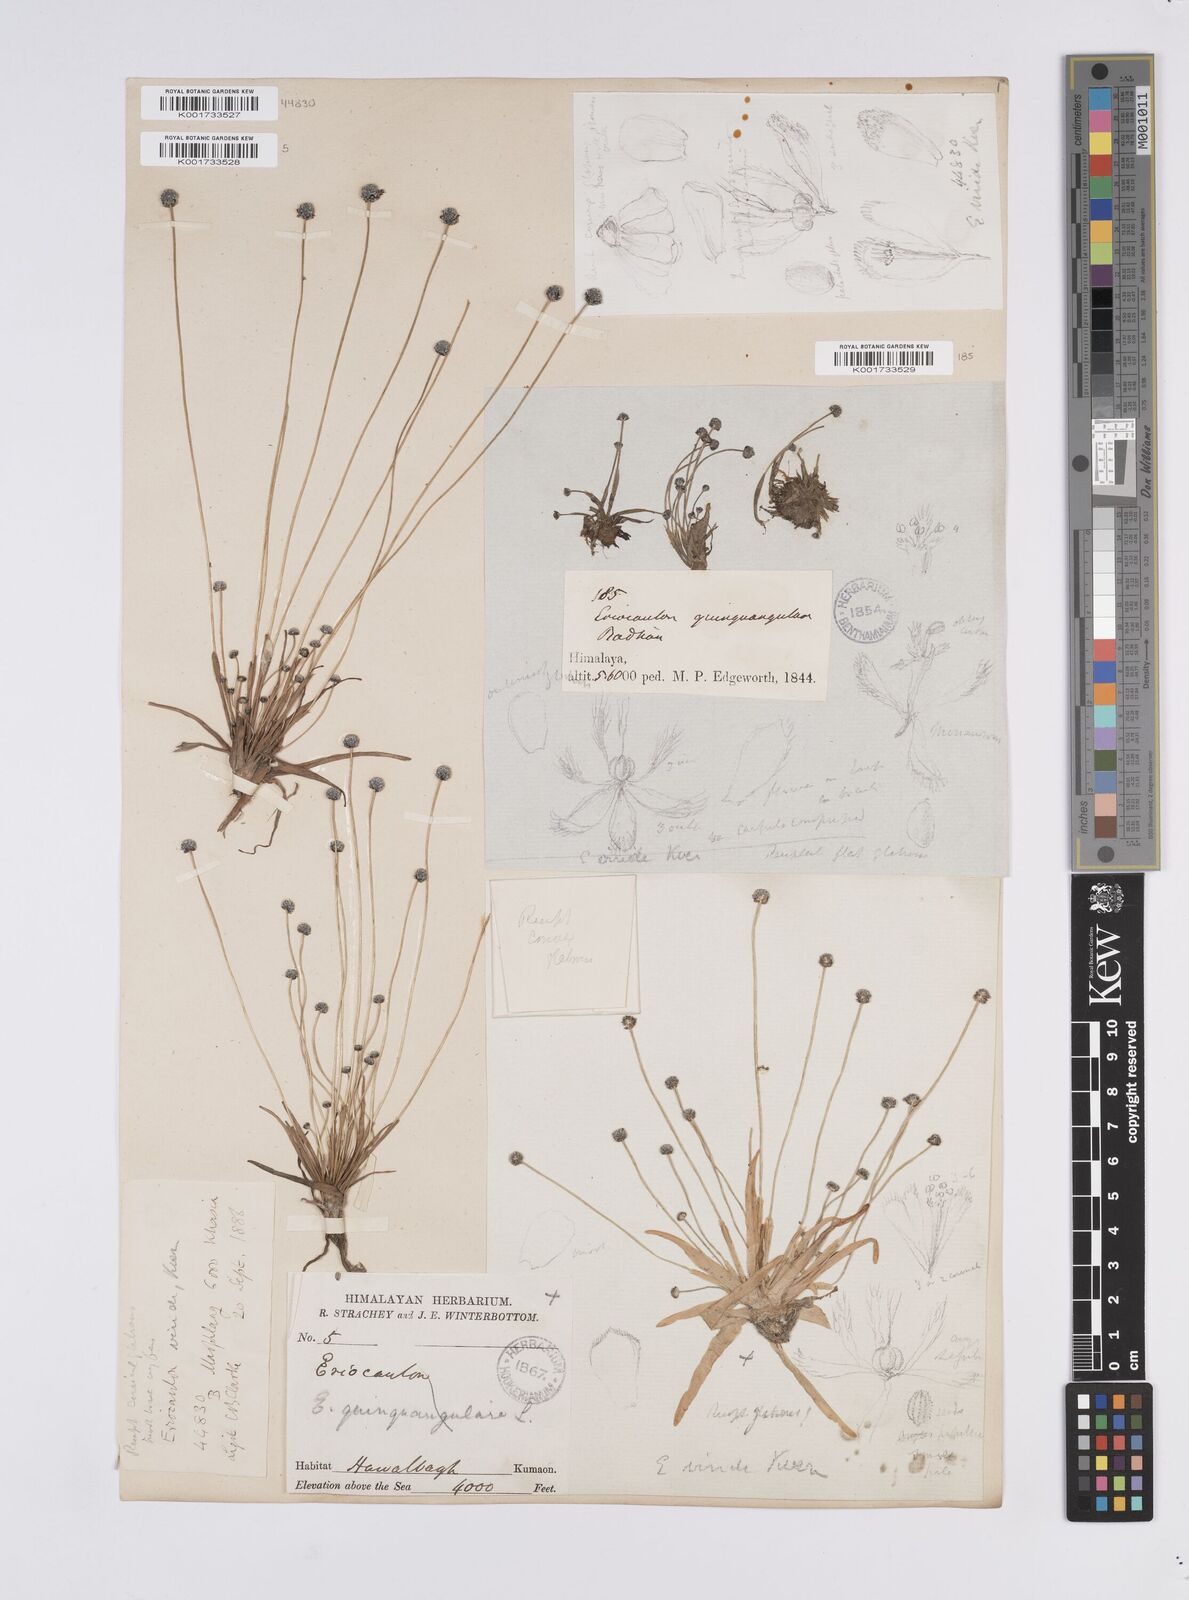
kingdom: Plantae
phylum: Tracheophyta
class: Liliopsida
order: Poales
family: Eriocaulaceae
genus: Eriocaulon
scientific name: Eriocaulon nepalense
